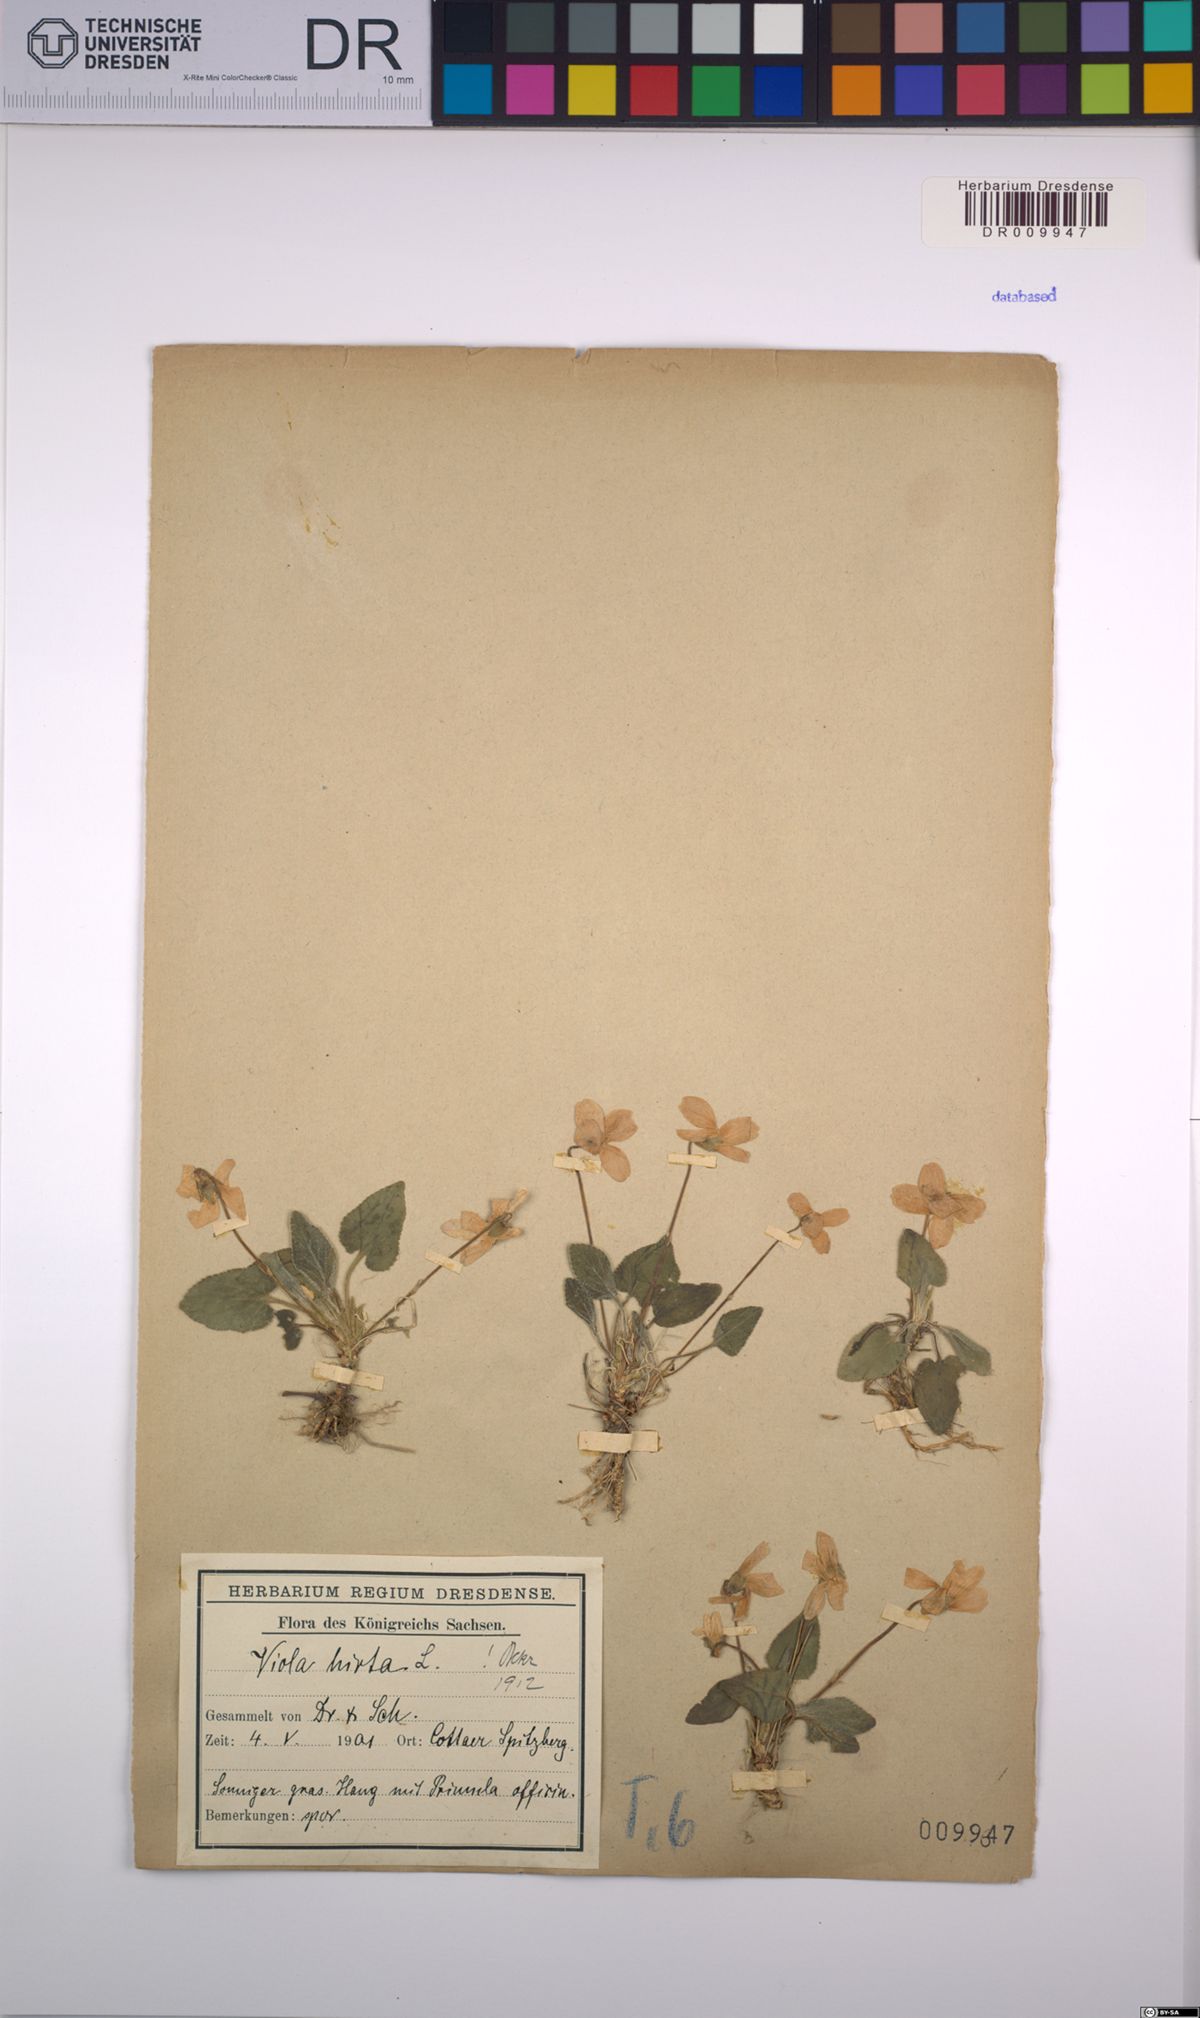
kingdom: Plantae
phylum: Tracheophyta
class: Magnoliopsida
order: Malpighiales
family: Violaceae
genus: Viola
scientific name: Viola hirta
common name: Hairy violet
